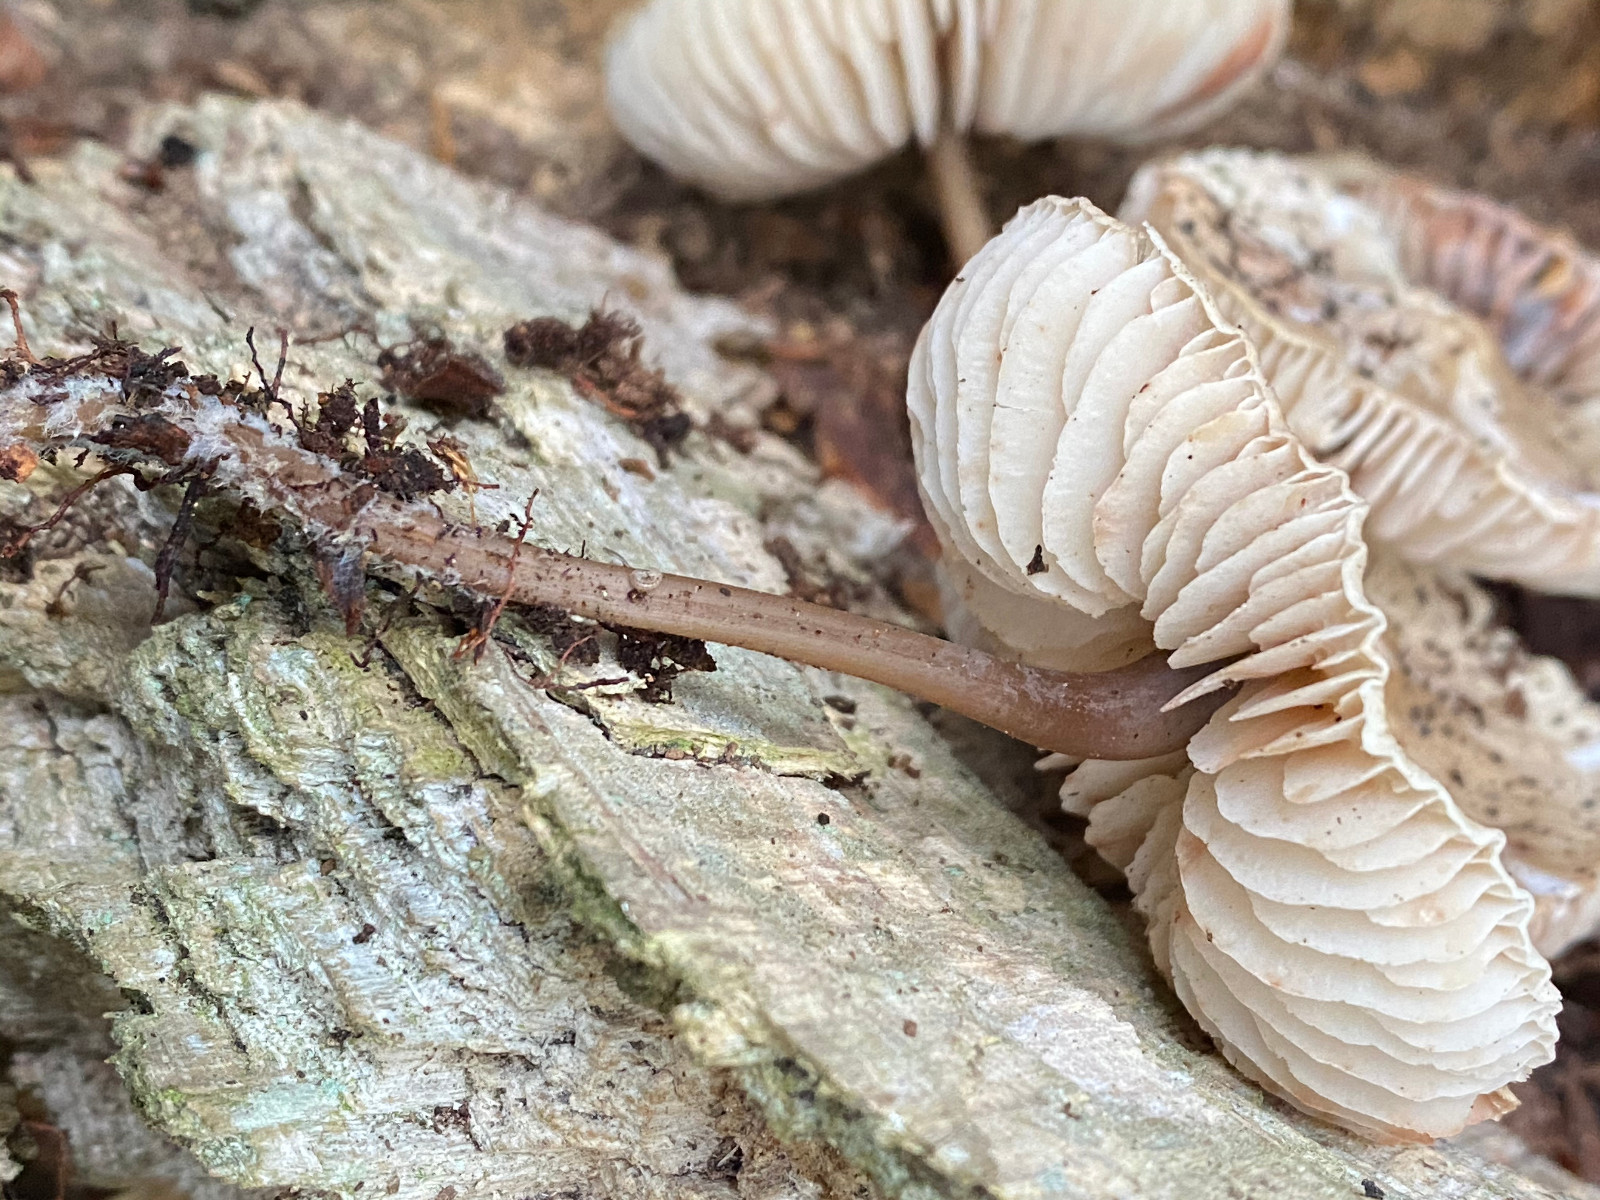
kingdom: Fungi
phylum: Basidiomycota
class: Agaricomycetes
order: Agaricales
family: Mycenaceae
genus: Mycena
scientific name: Mycena galericulata
